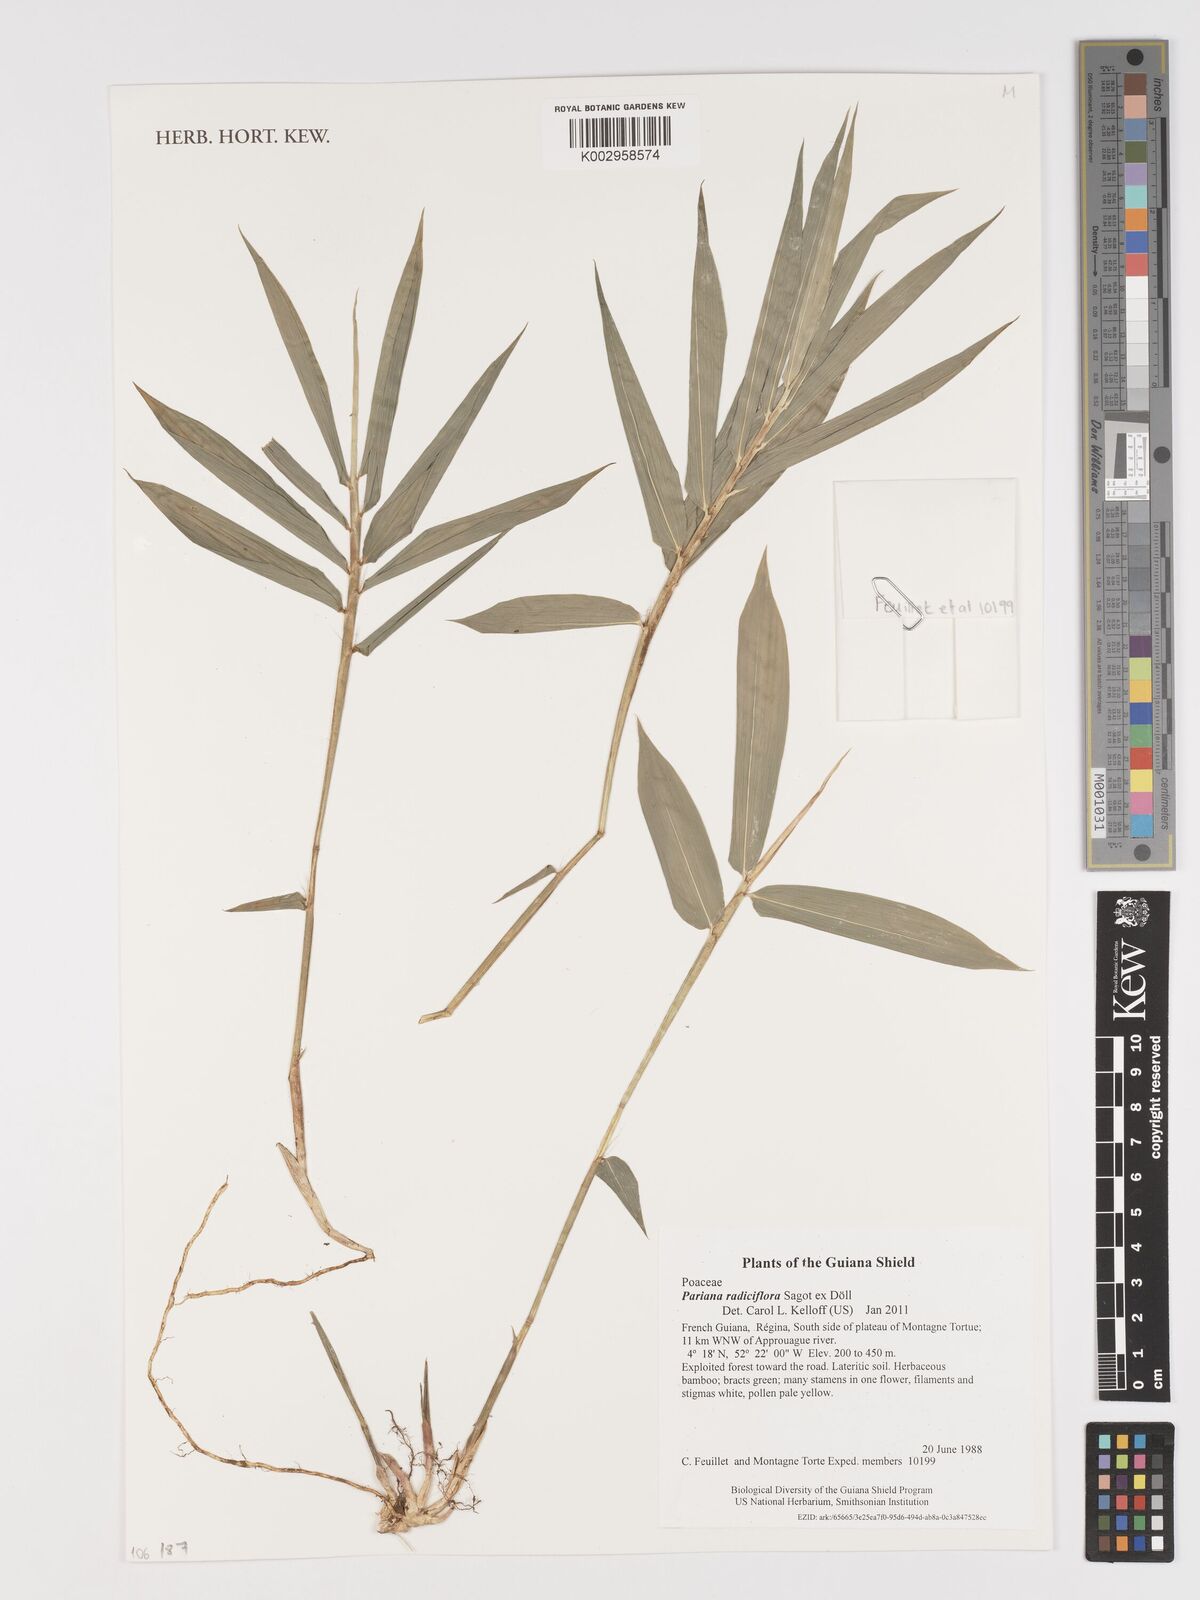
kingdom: Plantae
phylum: Tracheophyta
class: Liliopsida
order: Poales
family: Poaceae
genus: Pariana
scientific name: Pariana radiciflora
